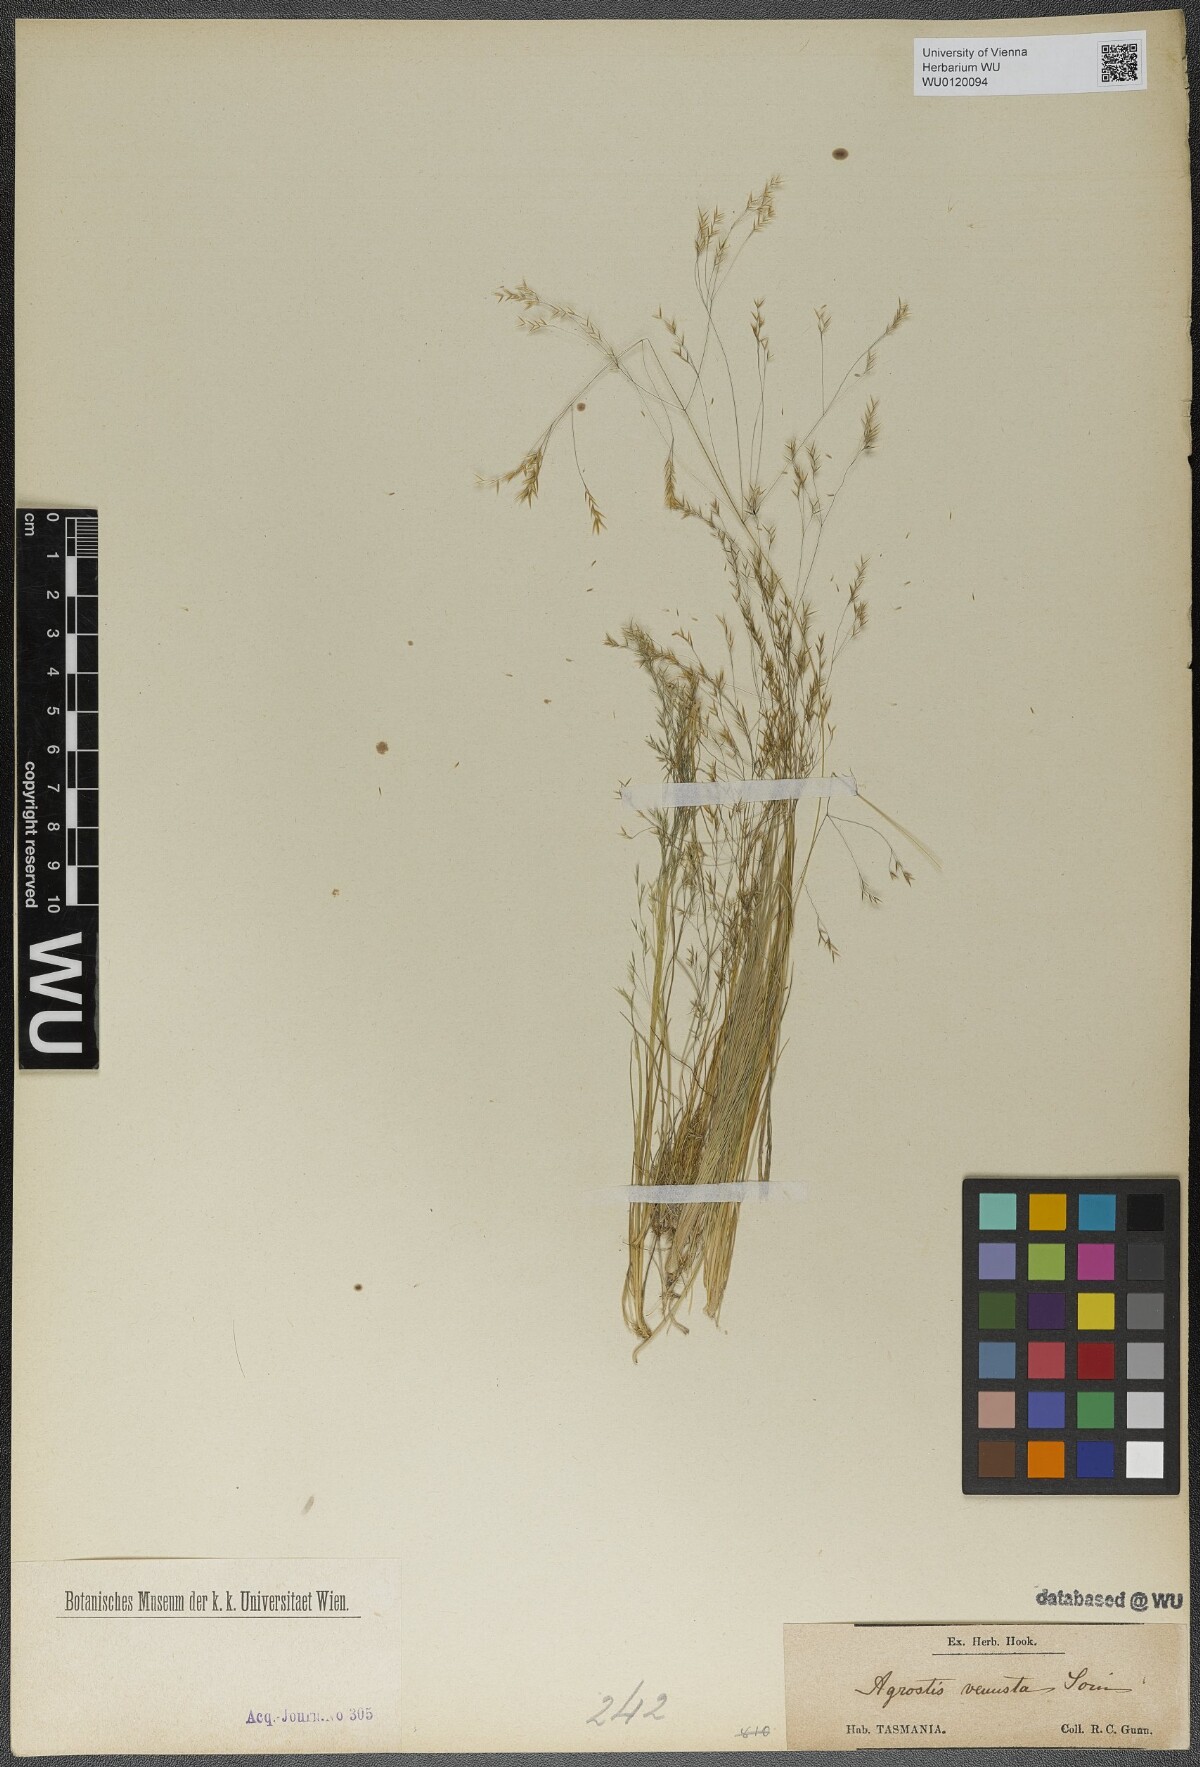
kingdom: Plantae
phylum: Tracheophyta
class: Liliopsida
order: Poales
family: Poaceae
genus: Agrostis
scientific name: Agrostis venusta
